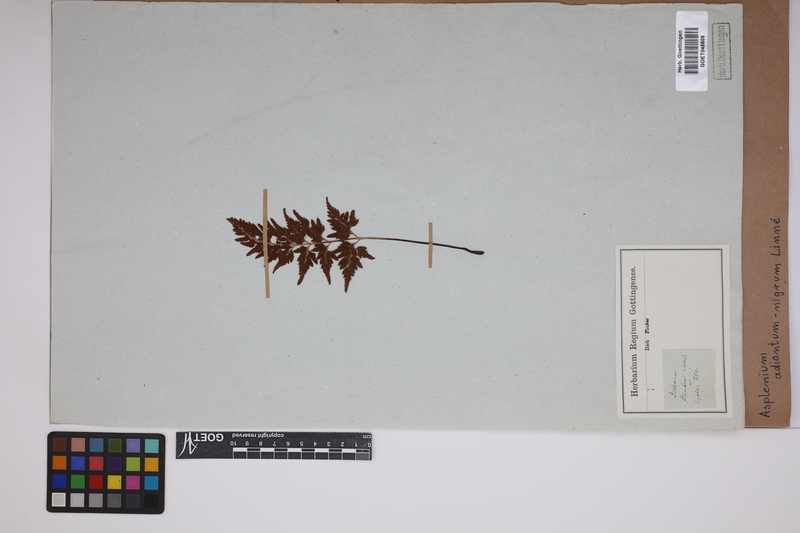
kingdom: Plantae
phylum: Tracheophyta
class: Polypodiopsida
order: Polypodiales
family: Aspleniaceae
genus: Asplenium
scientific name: Asplenium adiantum-nigrum
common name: Black spleenwort
